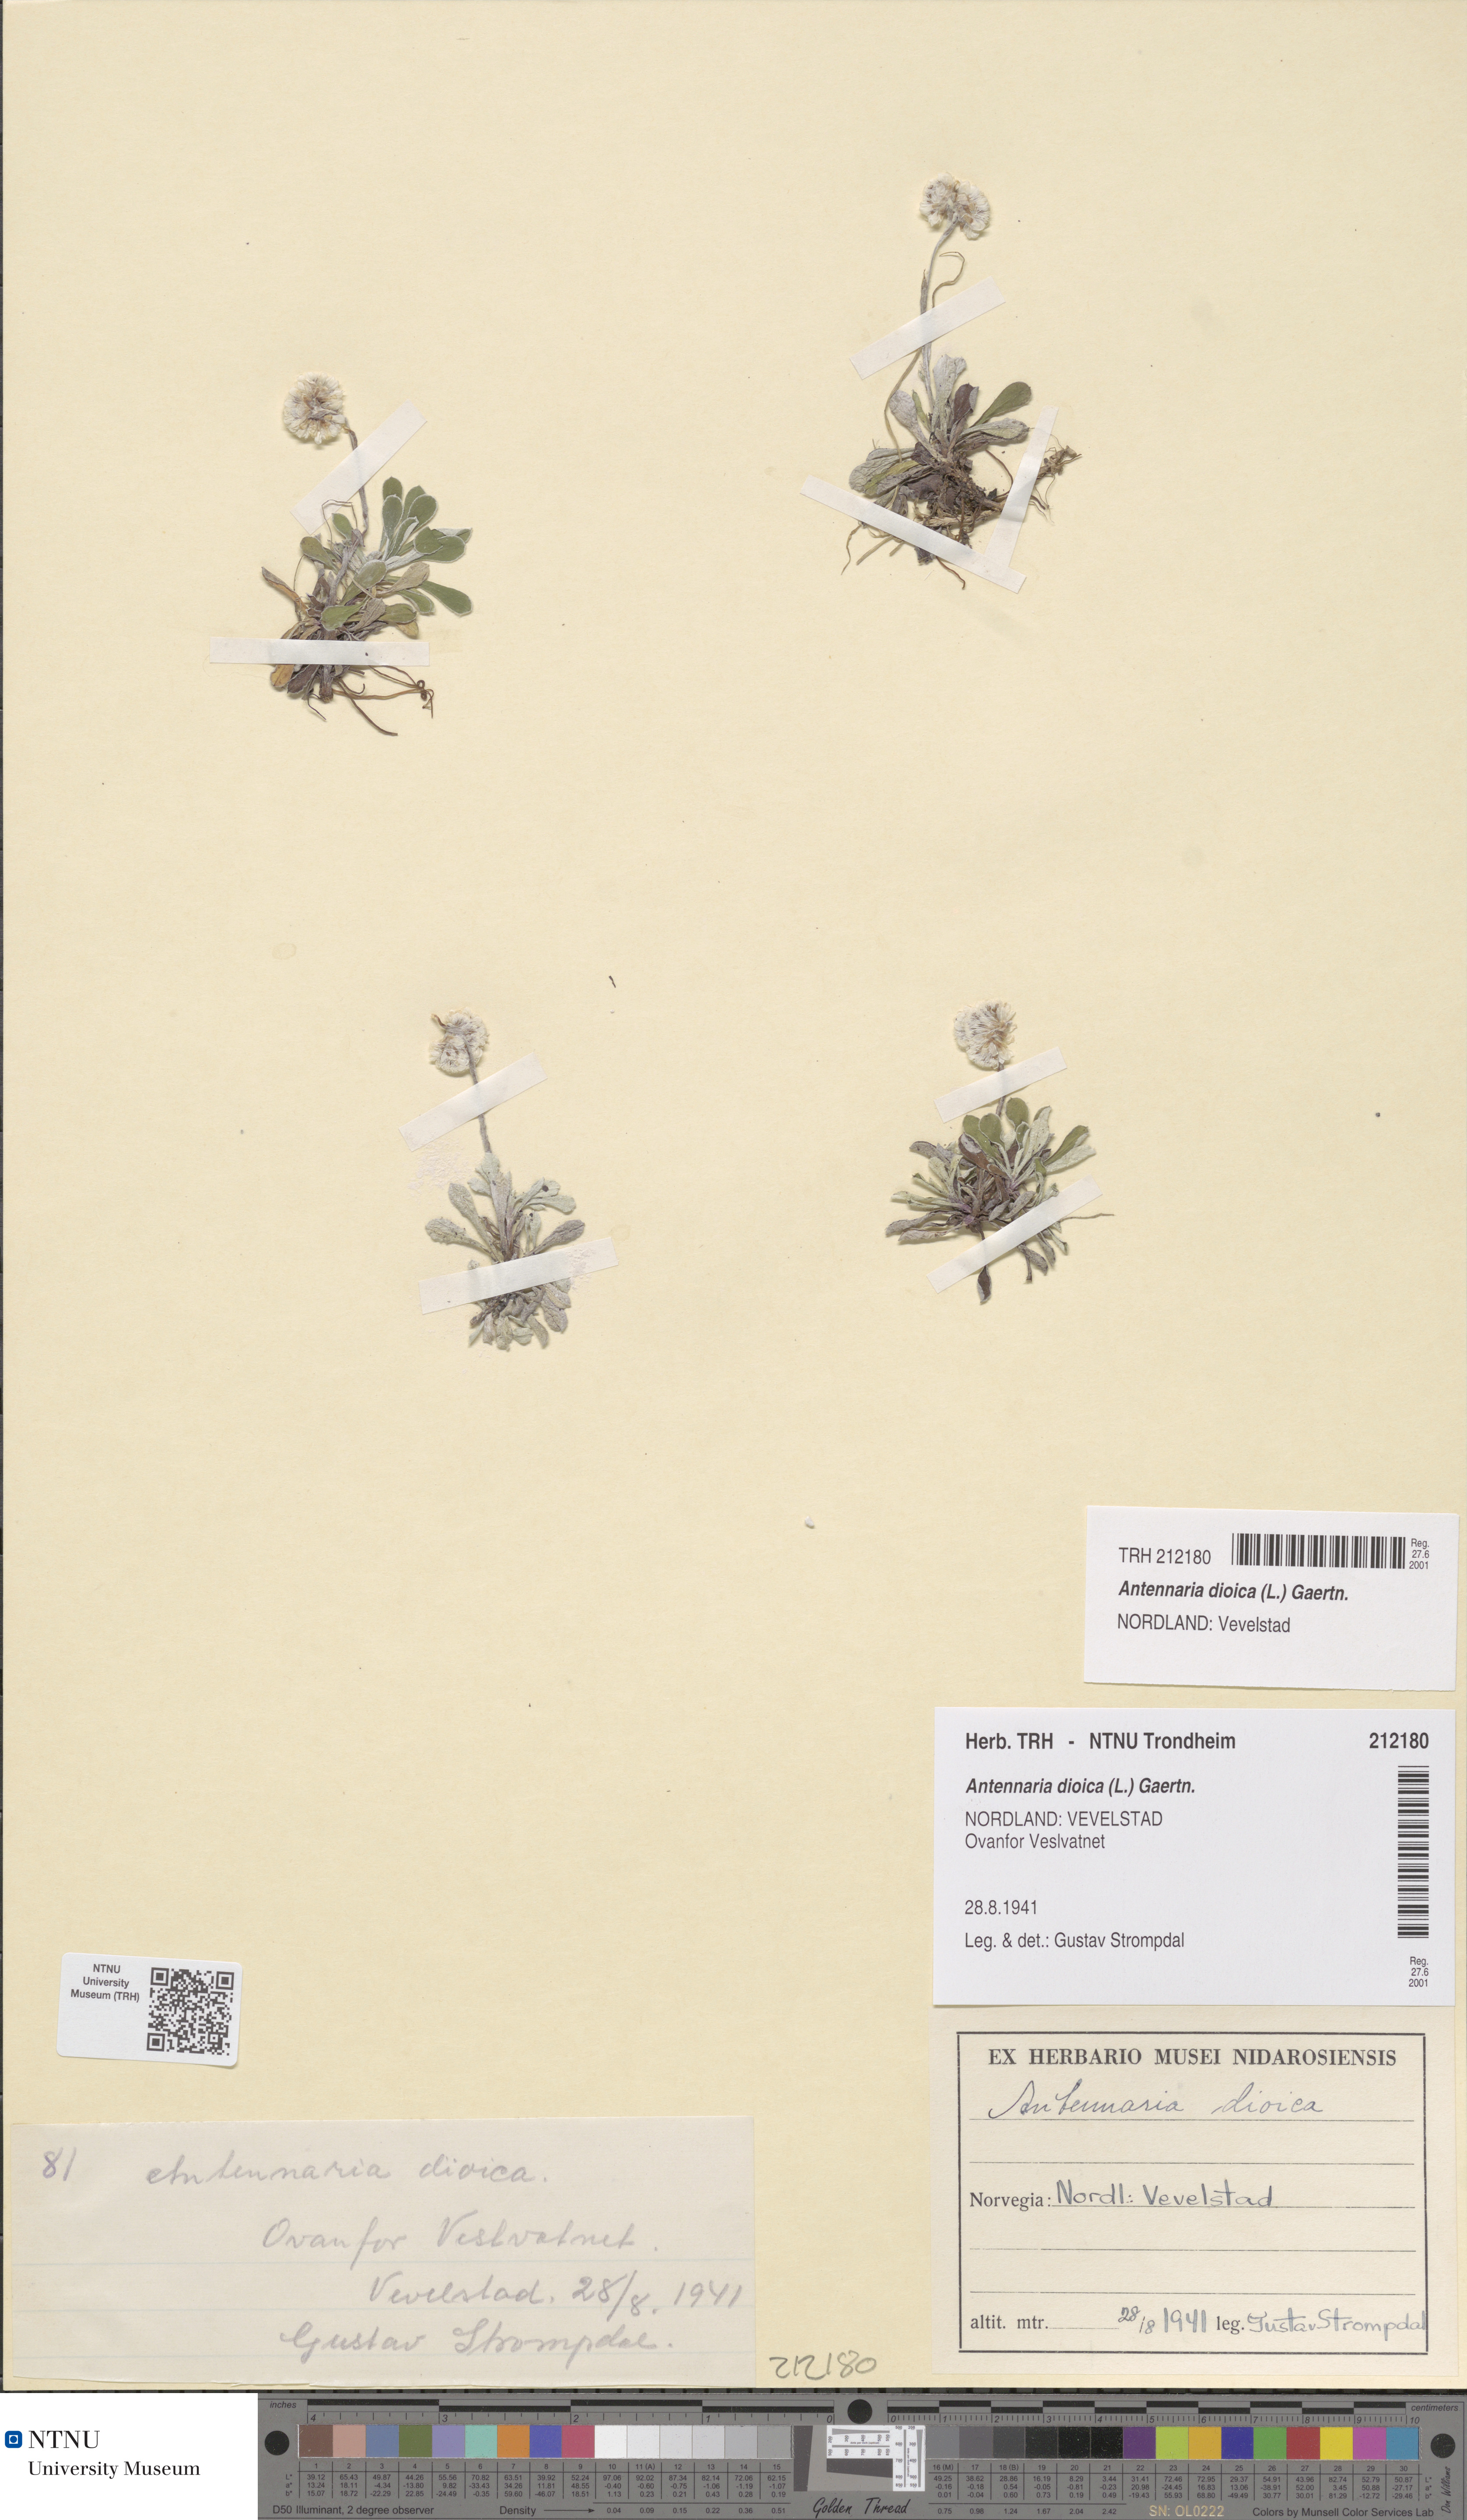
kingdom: Plantae
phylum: Tracheophyta
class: Magnoliopsida
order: Asterales
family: Asteraceae
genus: Antennaria
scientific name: Antennaria dioica
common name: Mountain everlasting
